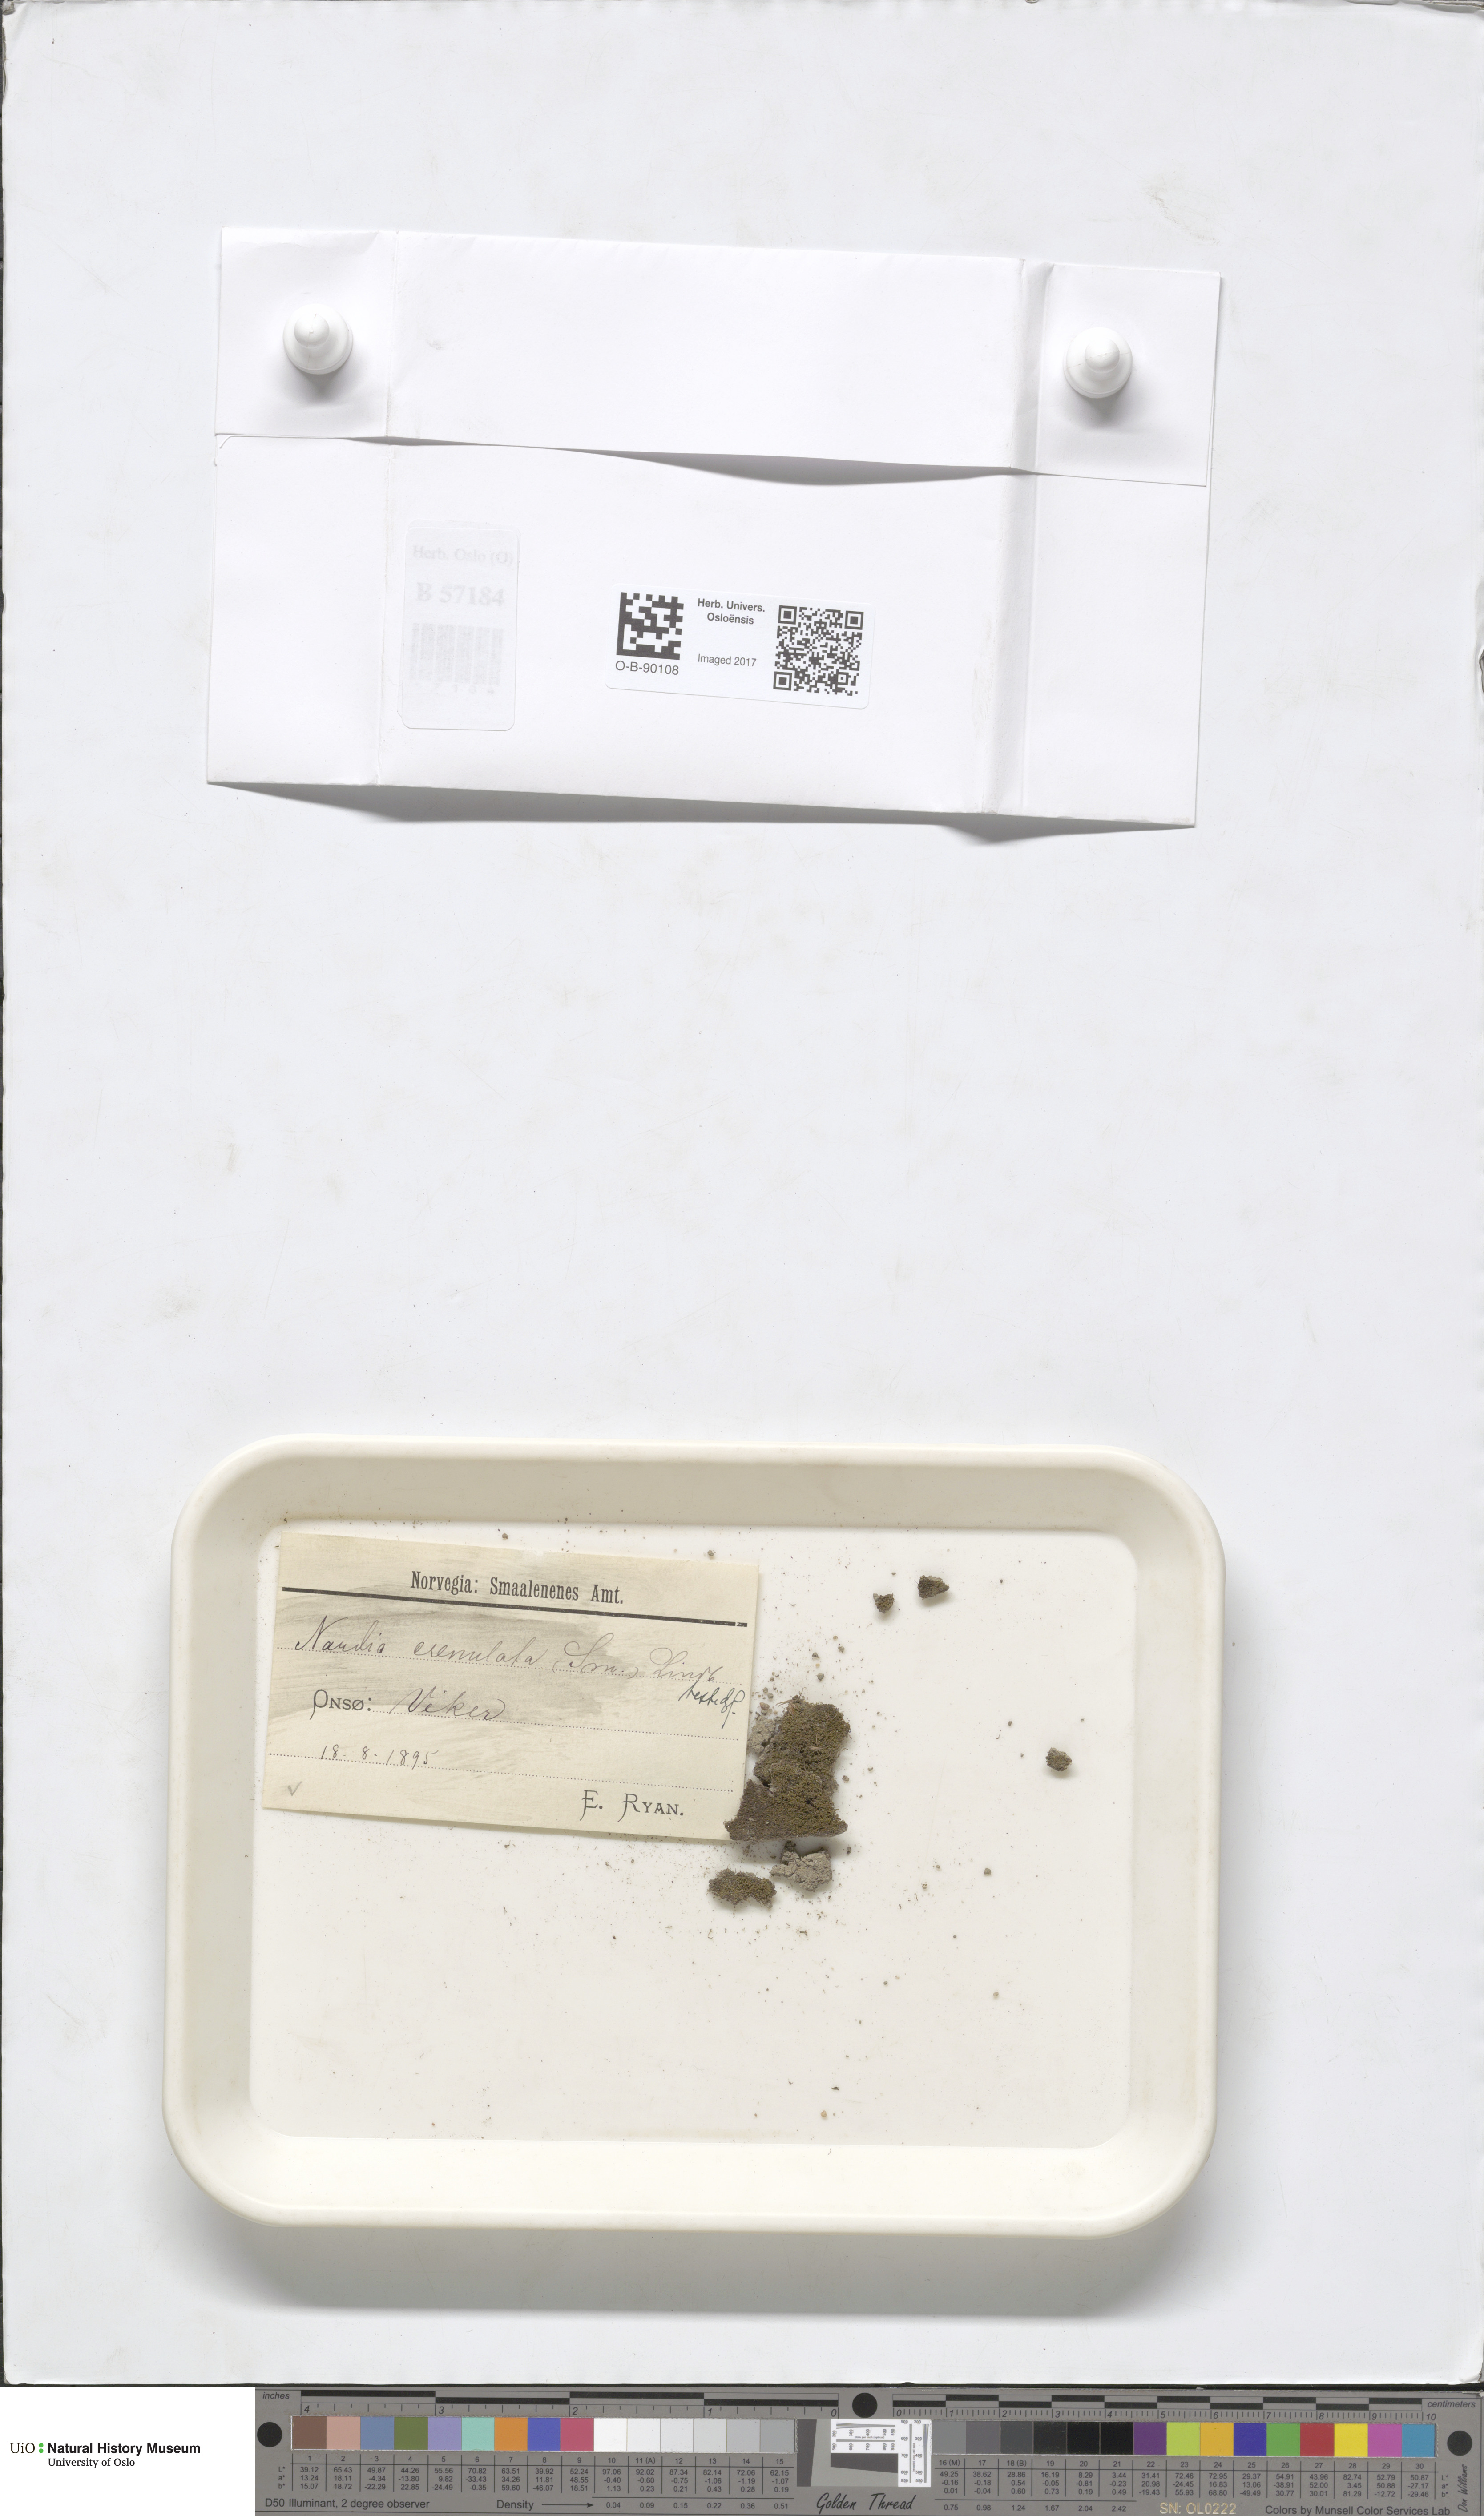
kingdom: Plantae
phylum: Marchantiophyta
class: Jungermanniopsida
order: Jungermanniales
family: Solenostomataceae
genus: Solenostoma
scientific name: Solenostoma gracillimum
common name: Crenulated flapwort
